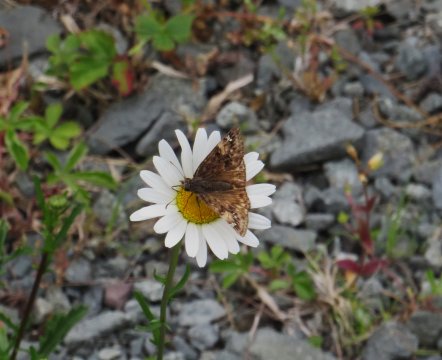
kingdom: Animalia
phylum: Arthropoda
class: Insecta
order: Lepidoptera
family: Hesperiidae
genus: Gesta
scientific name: Gesta
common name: Juvenal's Duskywing
